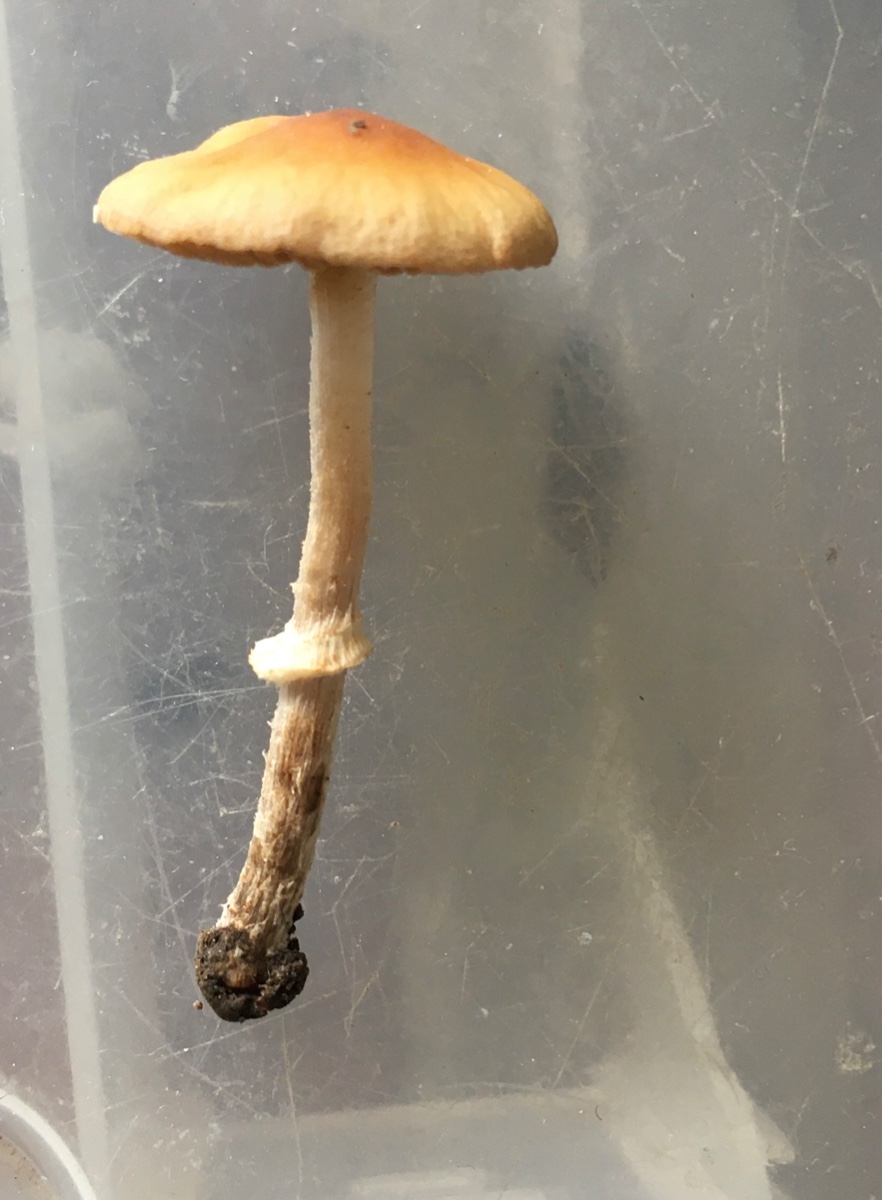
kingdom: Fungi
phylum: Basidiomycota
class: Agaricomycetes
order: Agaricales
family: Bolbitiaceae
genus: Conocybe
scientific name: Conocybe arrhenii
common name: ring-dansehat
